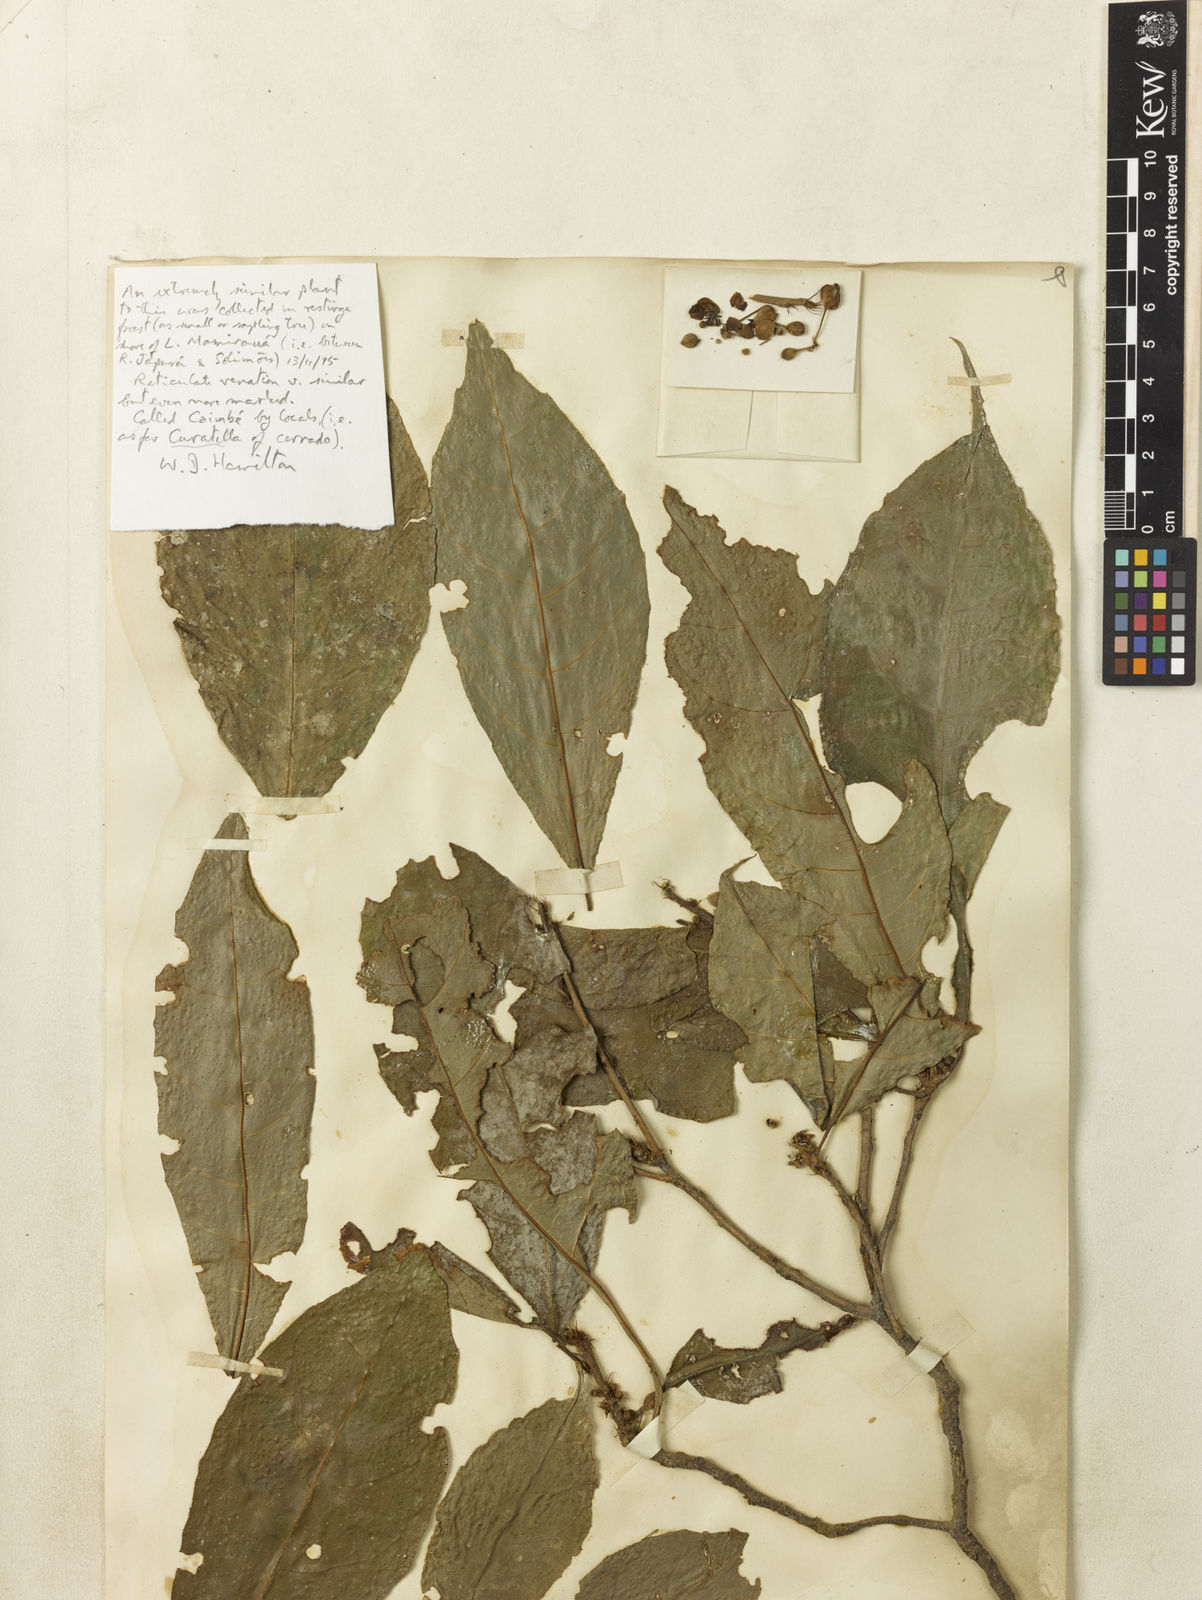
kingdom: Plantae
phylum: Tracheophyta
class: Magnoliopsida
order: Dilleniales
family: Dilleniaceae
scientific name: Dilleniaceae
